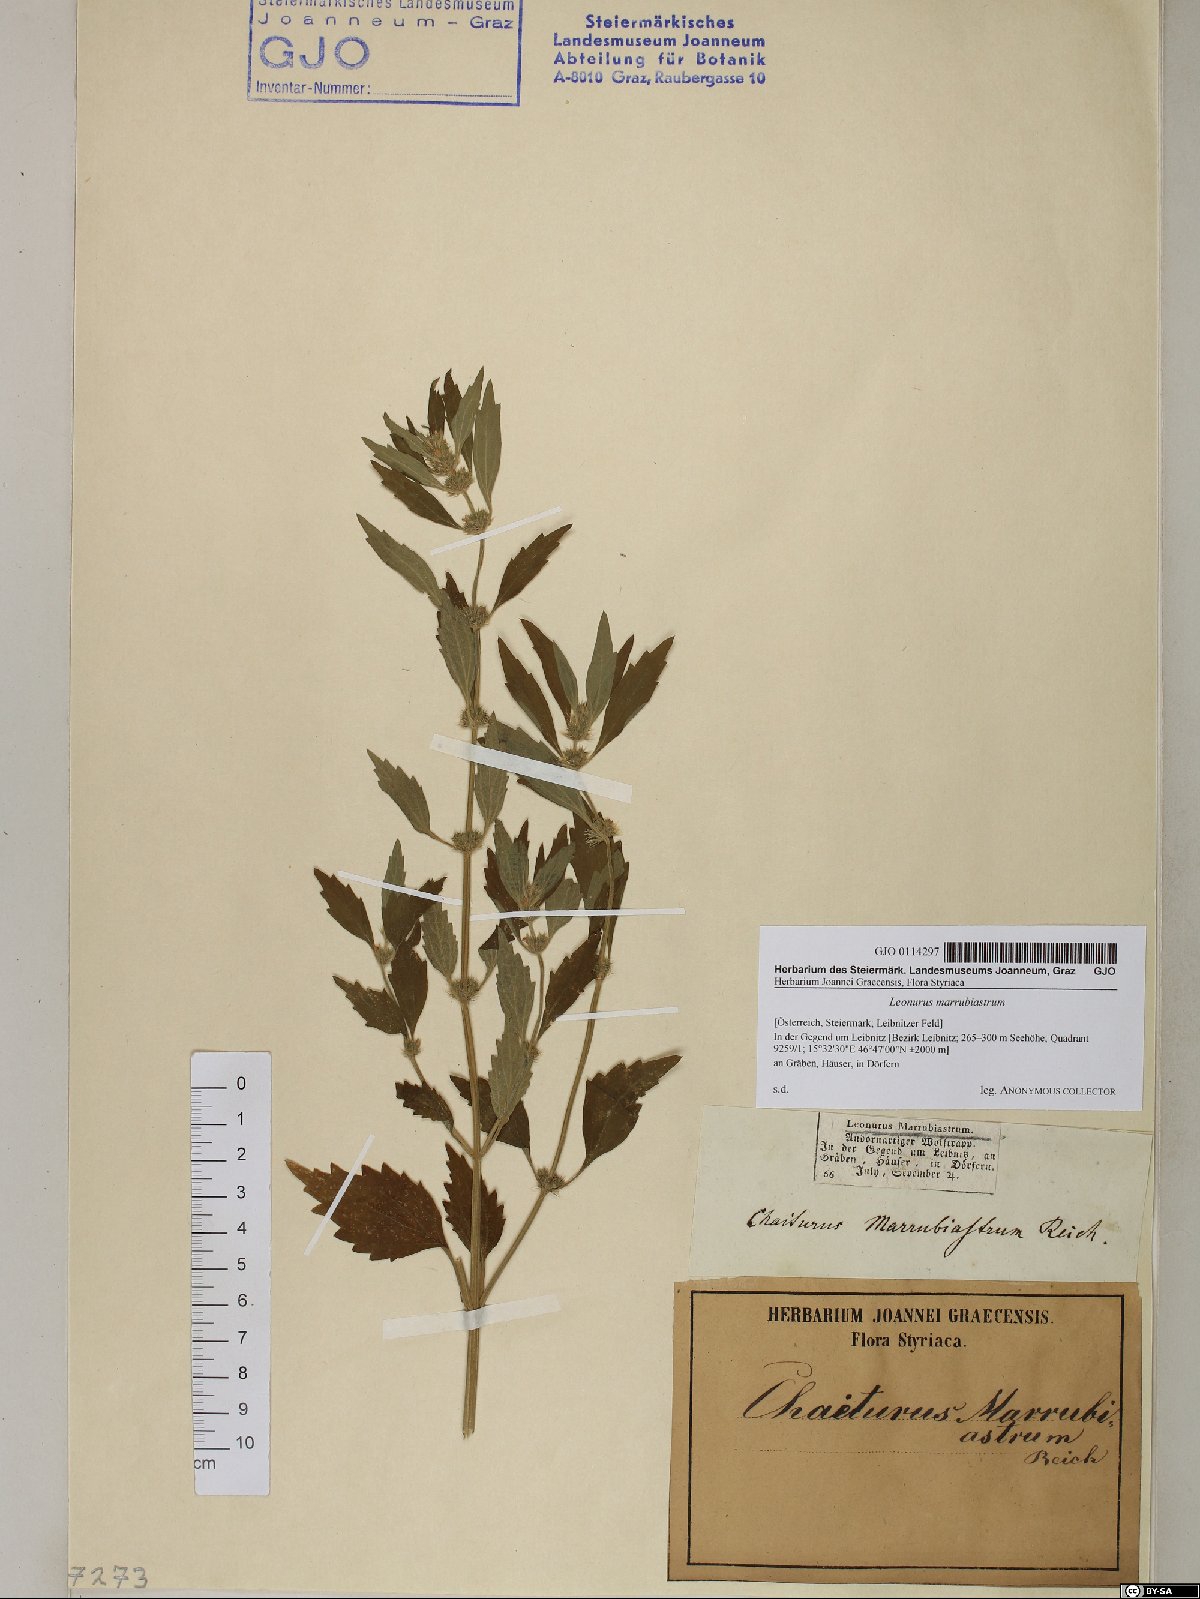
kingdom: Plantae
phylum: Tracheophyta
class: Magnoliopsida
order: Lamiales
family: Lamiaceae
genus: Chaiturus
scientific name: Chaiturus marrubiastrum
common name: Lion's tail
